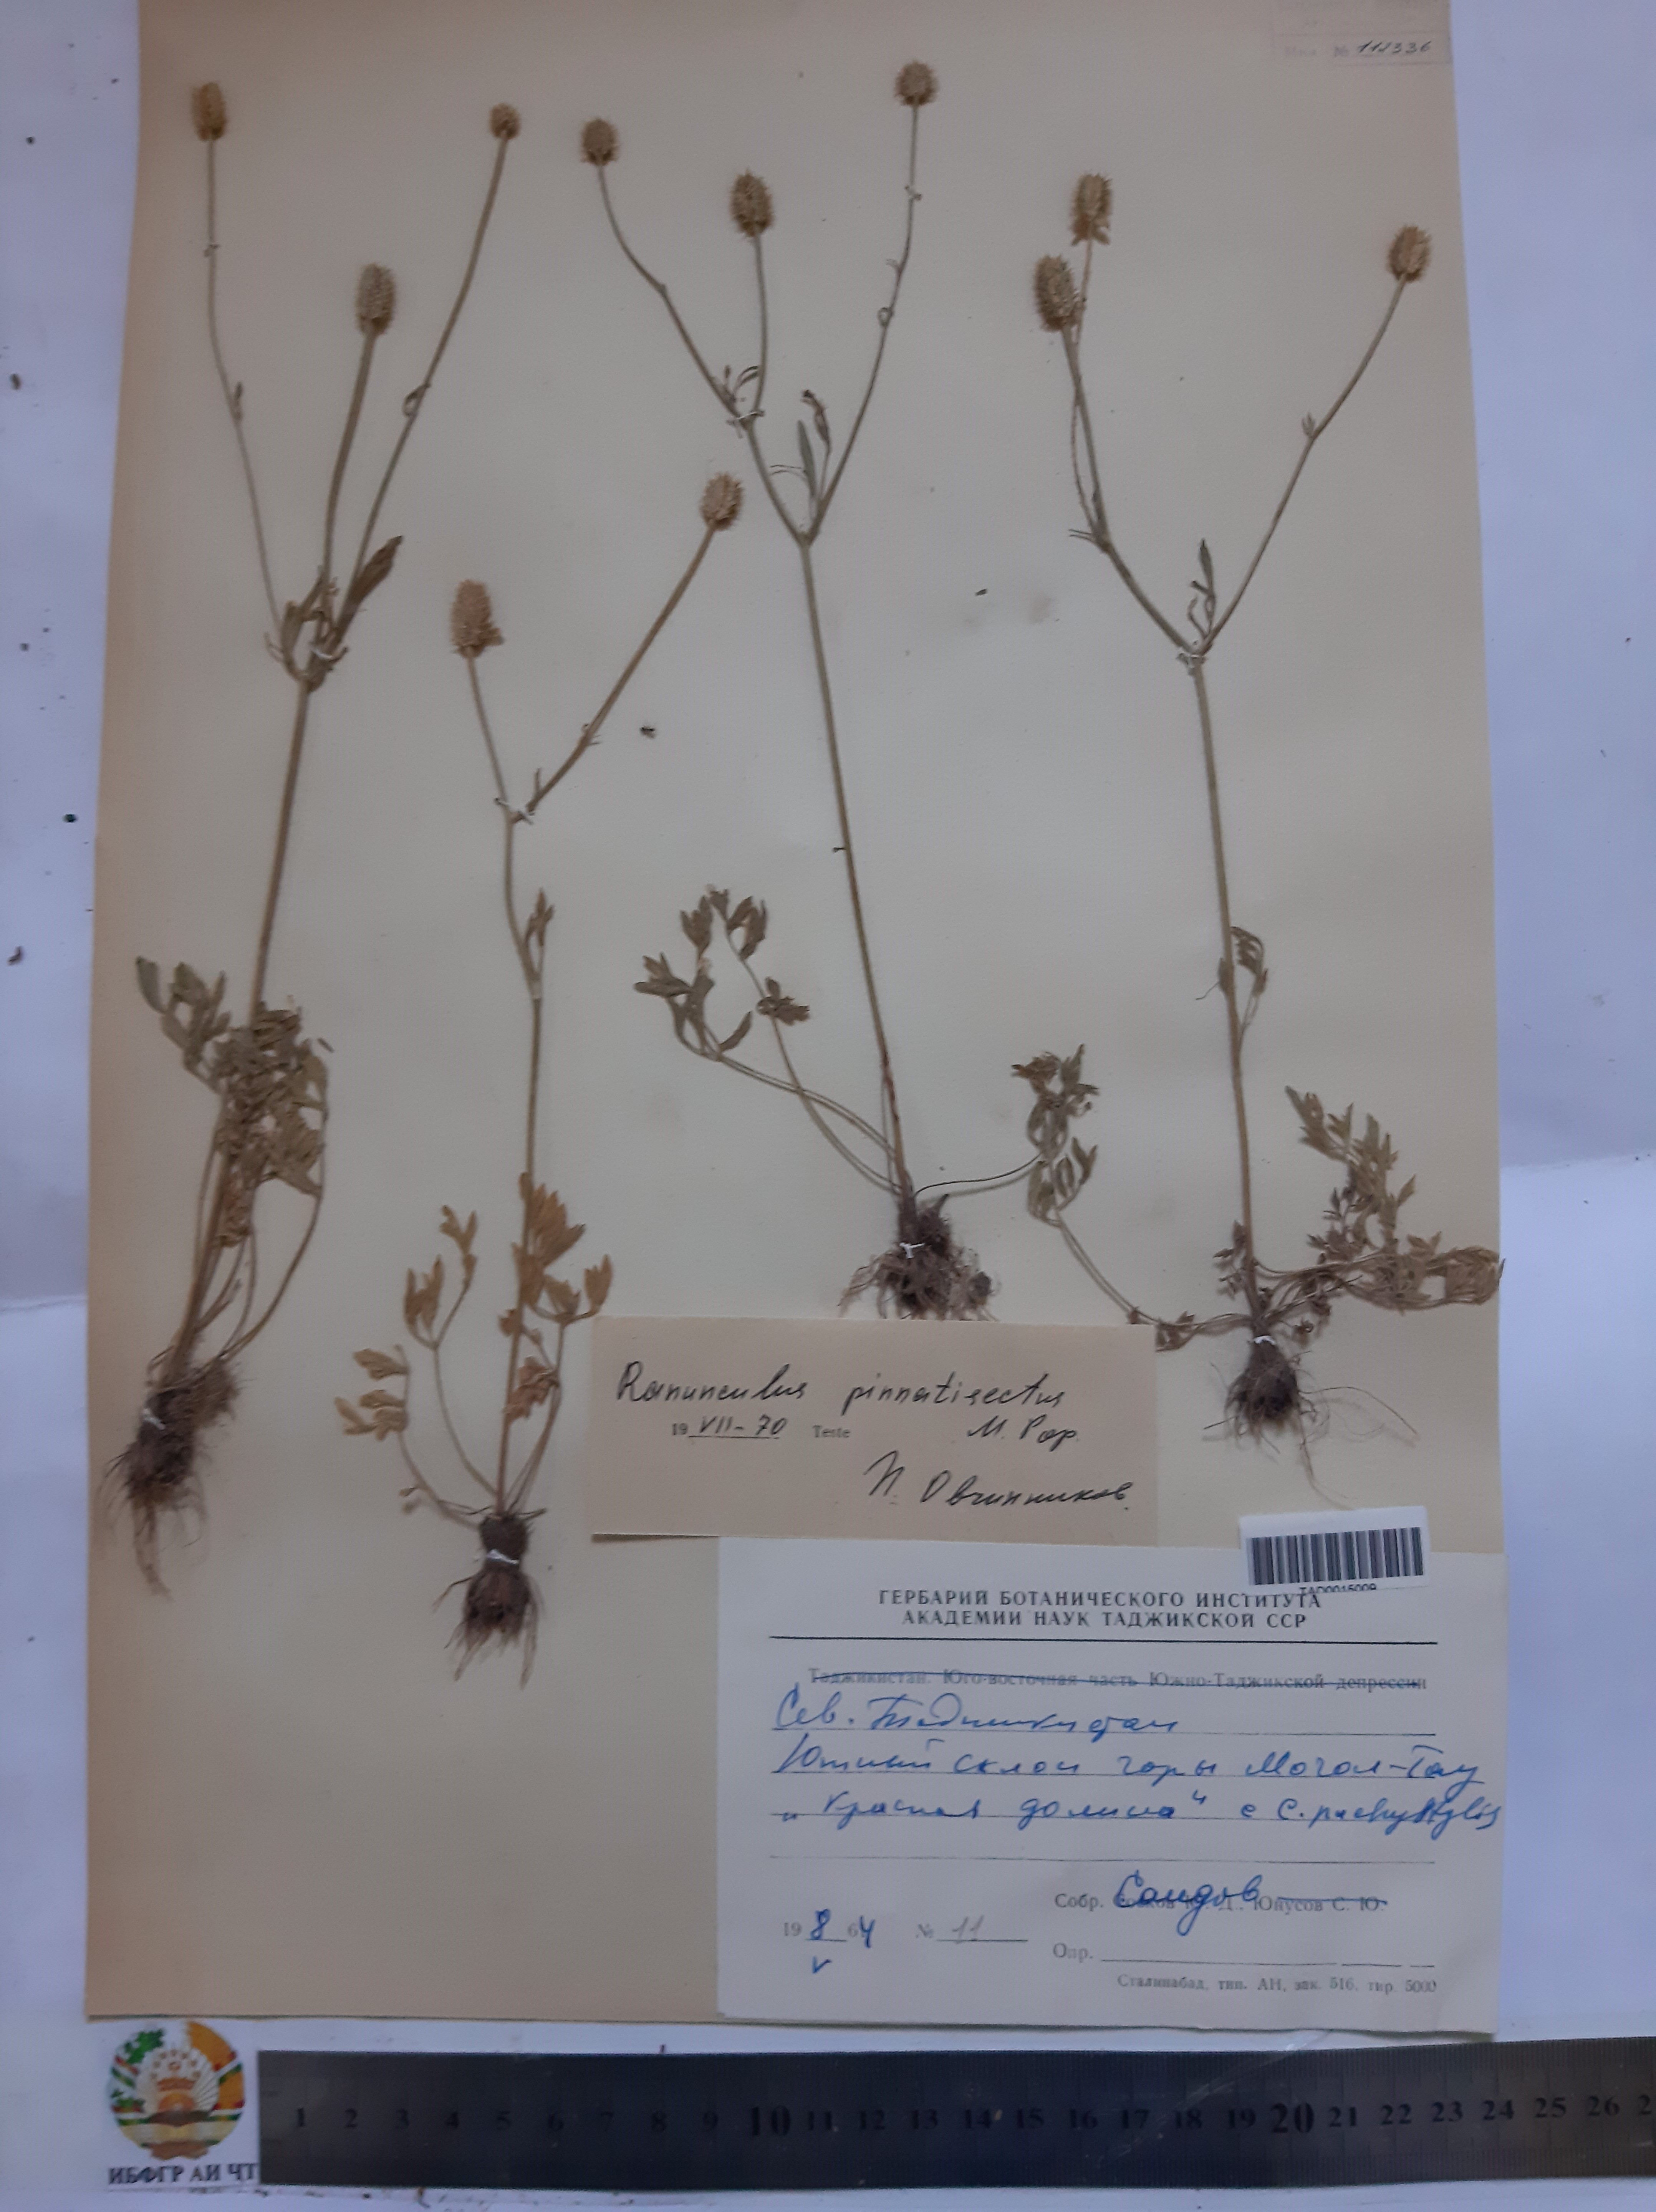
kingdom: Plantae
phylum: Tracheophyta
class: Magnoliopsida
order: Ranunculales
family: Ranunculaceae
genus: Ranunculus
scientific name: Ranunculus pinnatisectus
